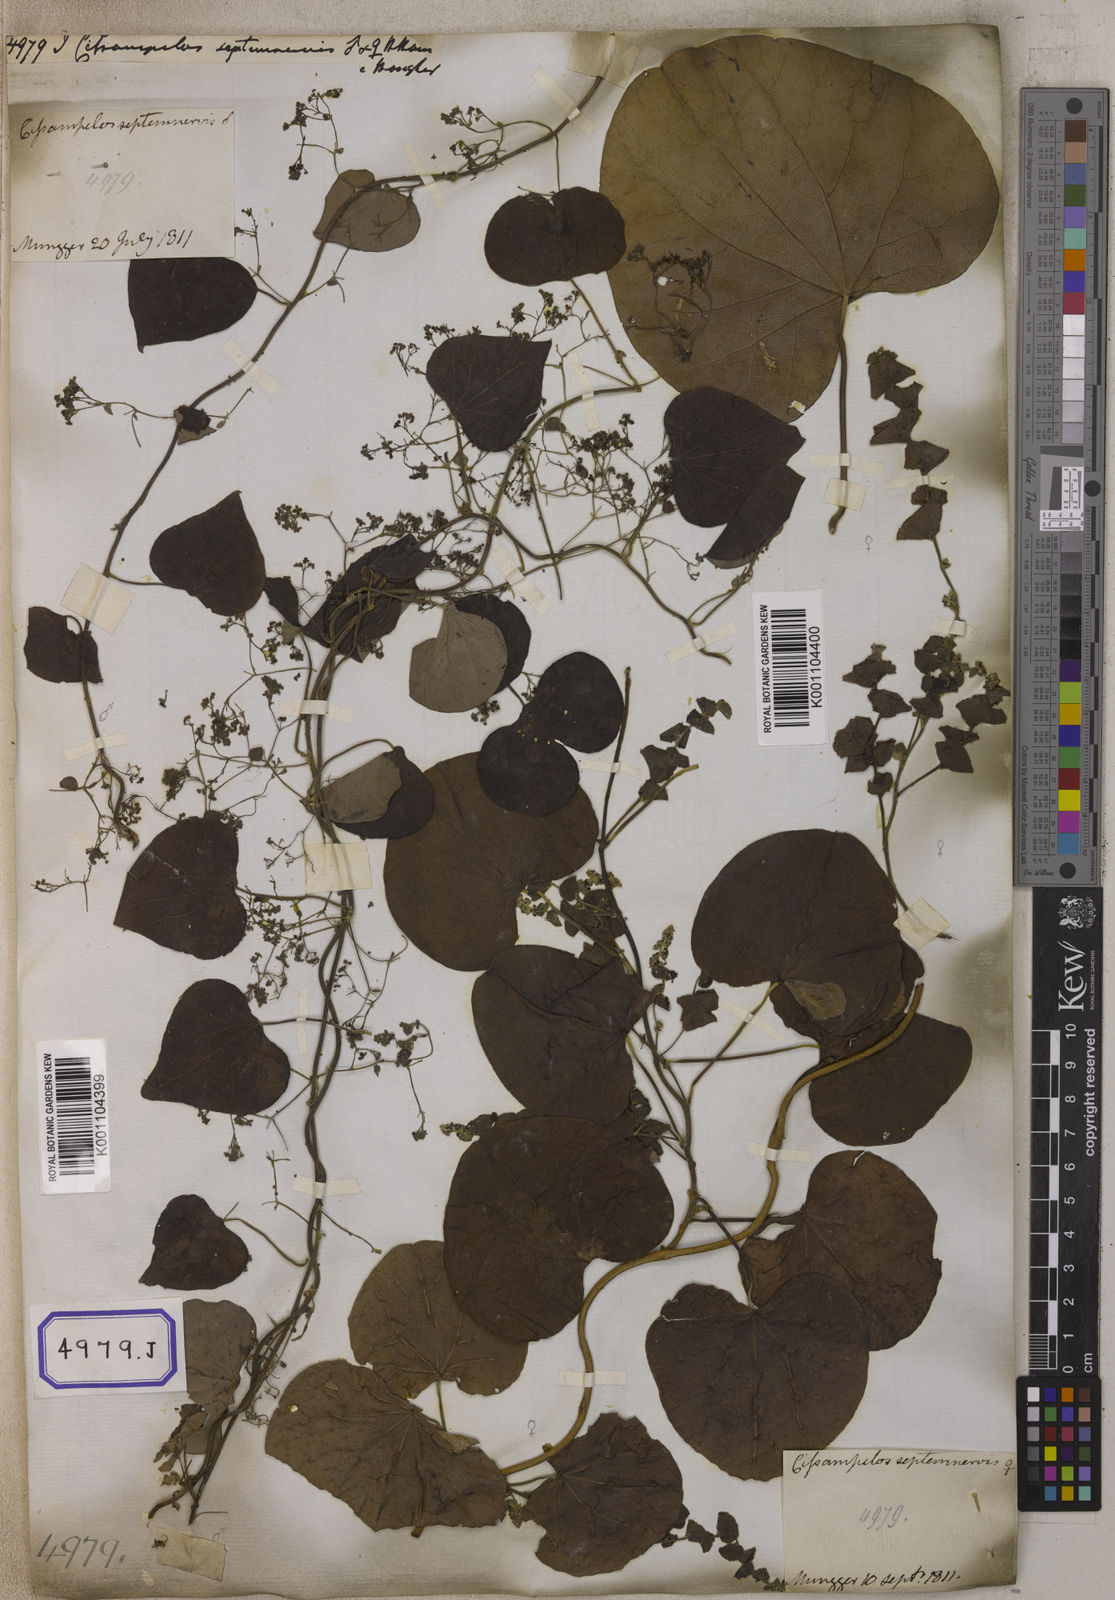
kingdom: Plantae
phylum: Tracheophyta
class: Magnoliopsida
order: Ranunculales
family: Menispermaceae
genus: Cissampelos
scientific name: Cissampelos pareira
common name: Velvetleaf
